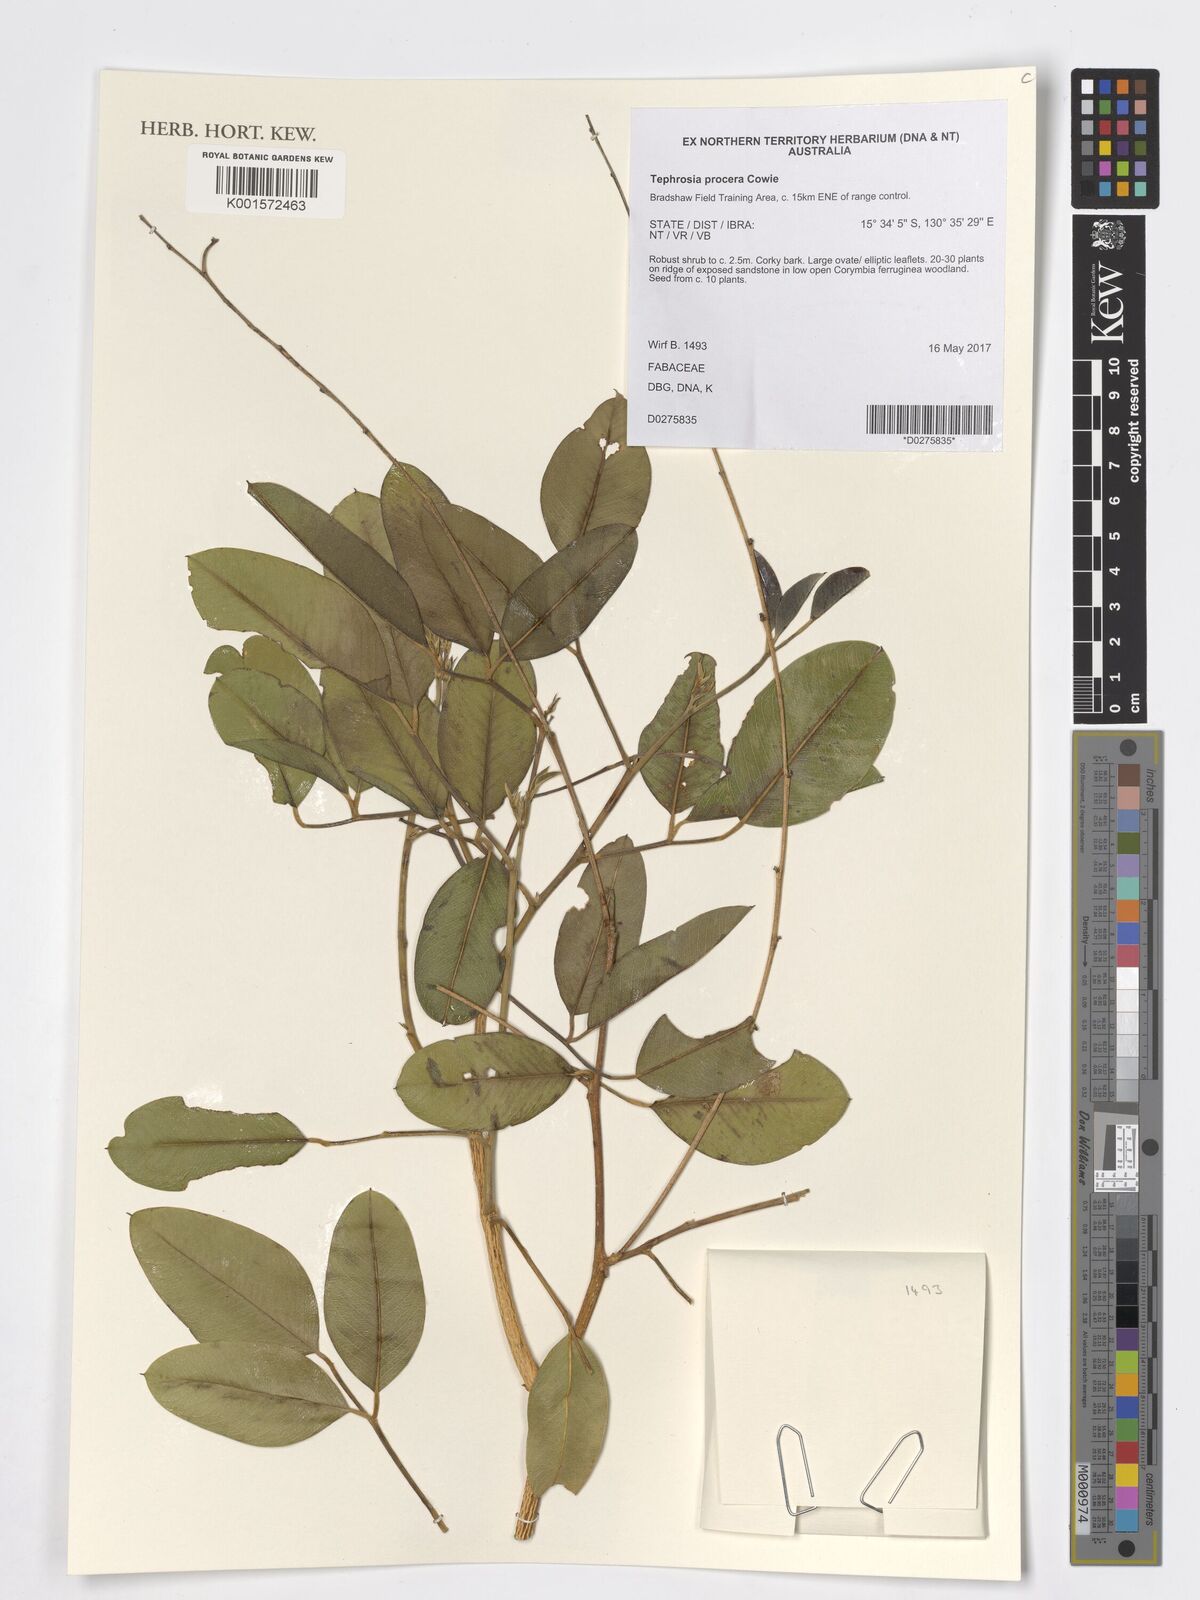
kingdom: Plantae
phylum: Tracheophyta
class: Magnoliopsida
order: Fabales
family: Fabaceae
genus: Tephrosia
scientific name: Tephrosia procera
